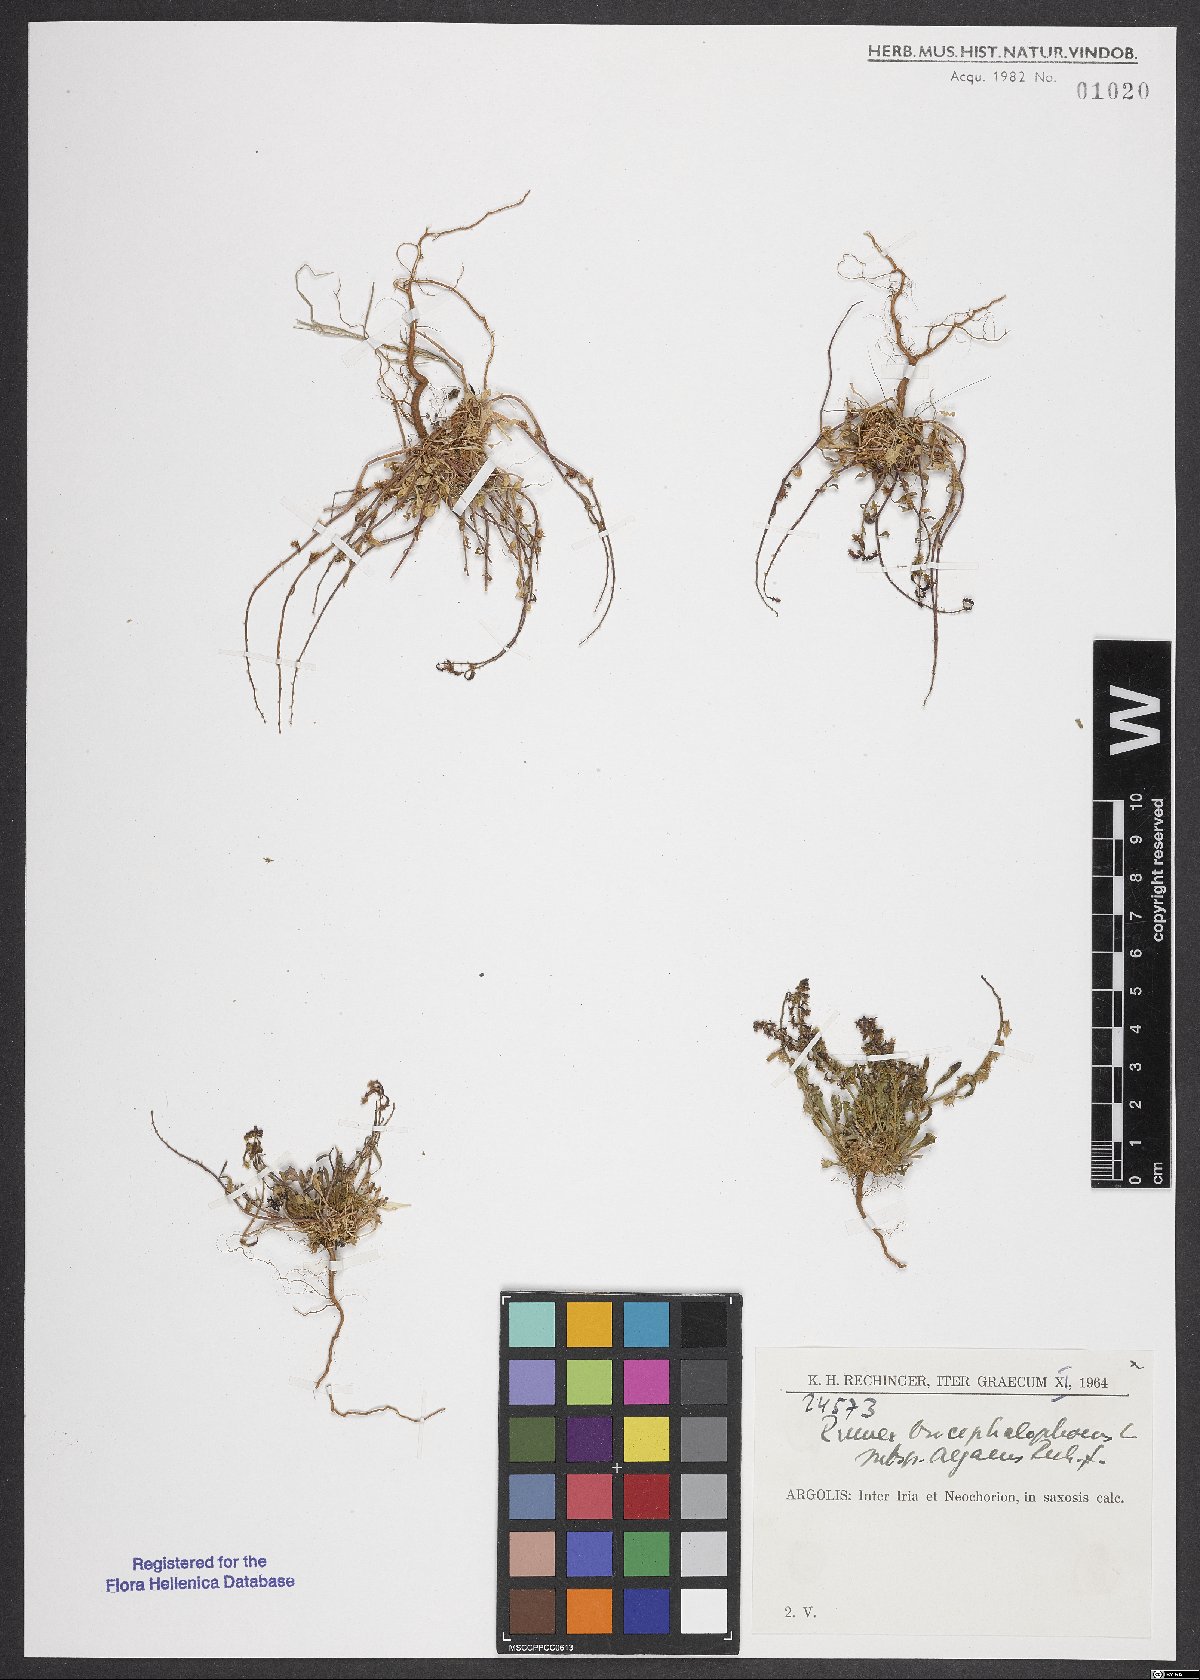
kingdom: Plantae
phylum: Tracheophyta
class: Magnoliopsida
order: Caryophyllales
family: Polygonaceae
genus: Rumex
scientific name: Rumex bucephalophorus
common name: Red dock
